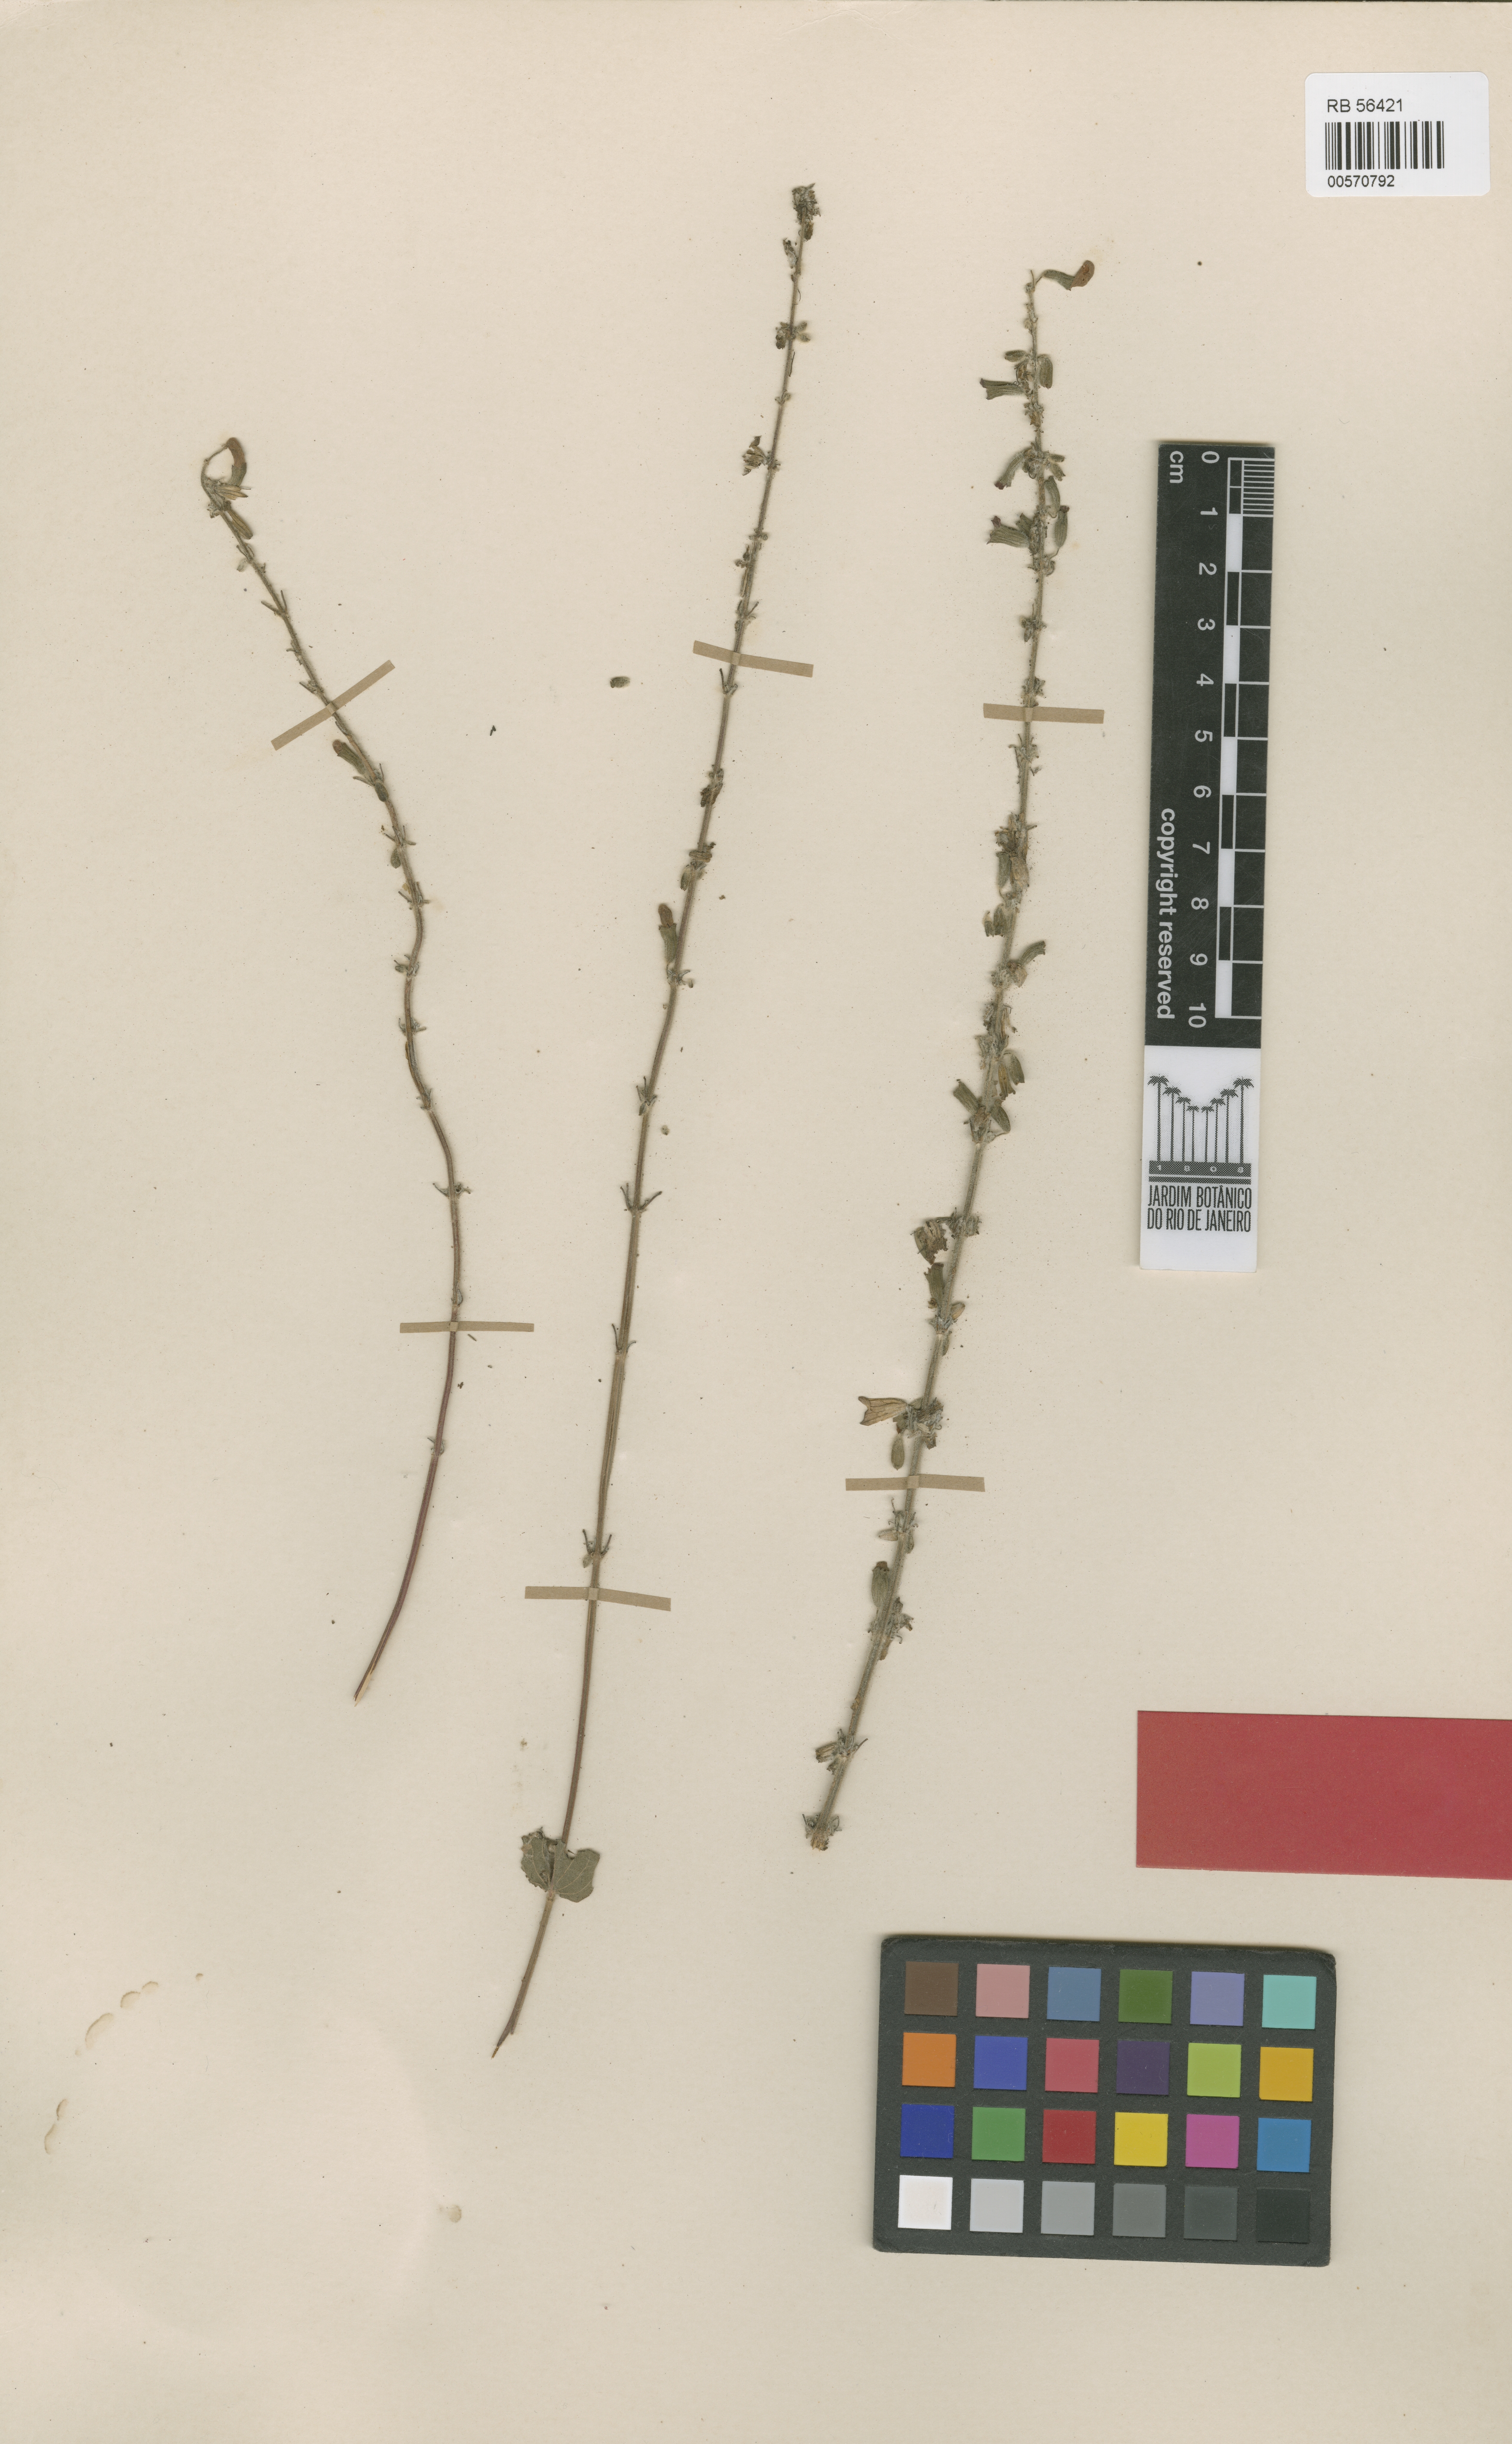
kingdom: Plantae
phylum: Tracheophyta
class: Magnoliopsida
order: Lamiales
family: Lamiaceae
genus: Salvia
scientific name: Salvia itaguassuensis
